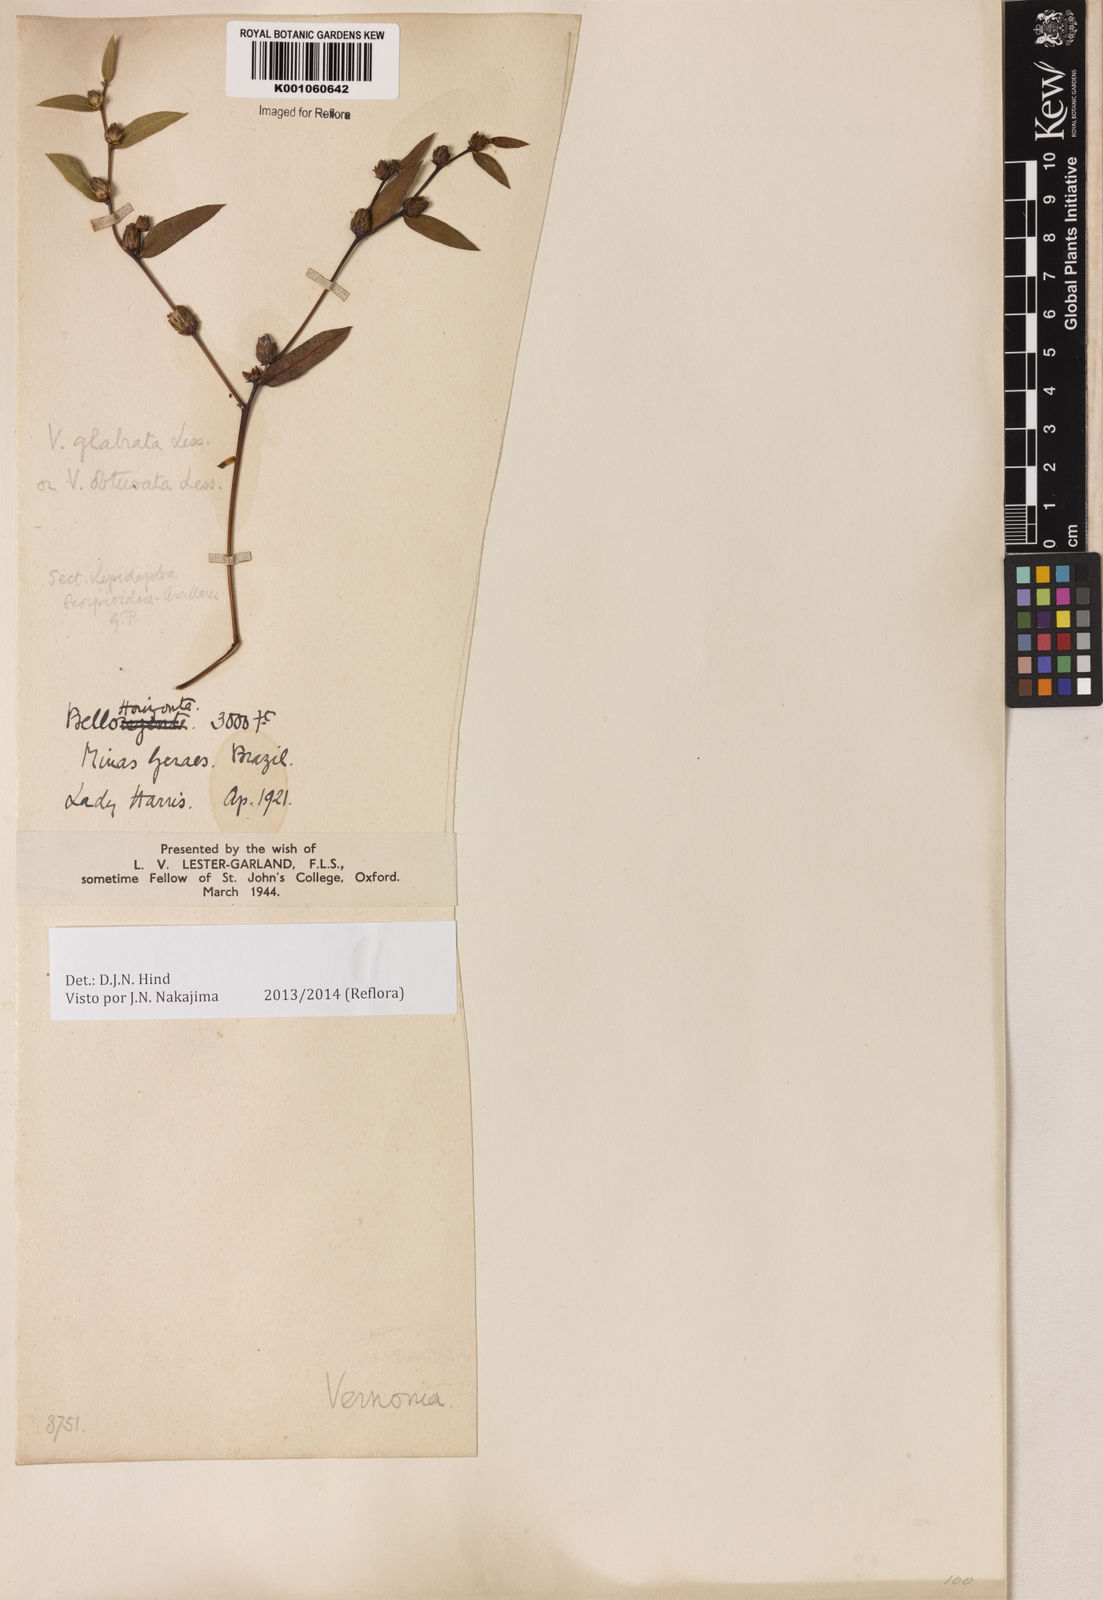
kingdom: Plantae
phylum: Tracheophyta
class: Magnoliopsida
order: Asterales
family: Asteraceae
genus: Lessingianthus
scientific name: Lessingianthus glabratus
